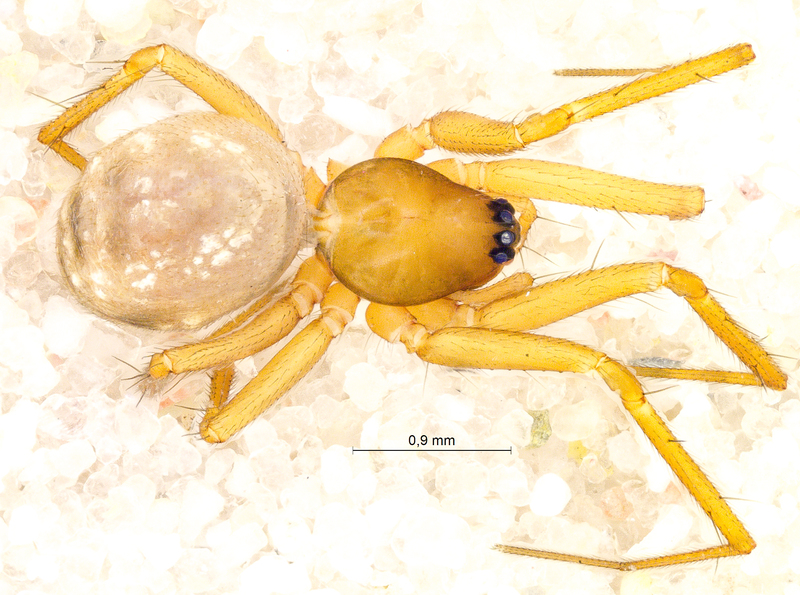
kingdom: Animalia
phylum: Arthropoda
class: Arachnida
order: Araneae
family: Linyphiidae
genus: Tenuiphantes
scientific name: Tenuiphantes cristatus
